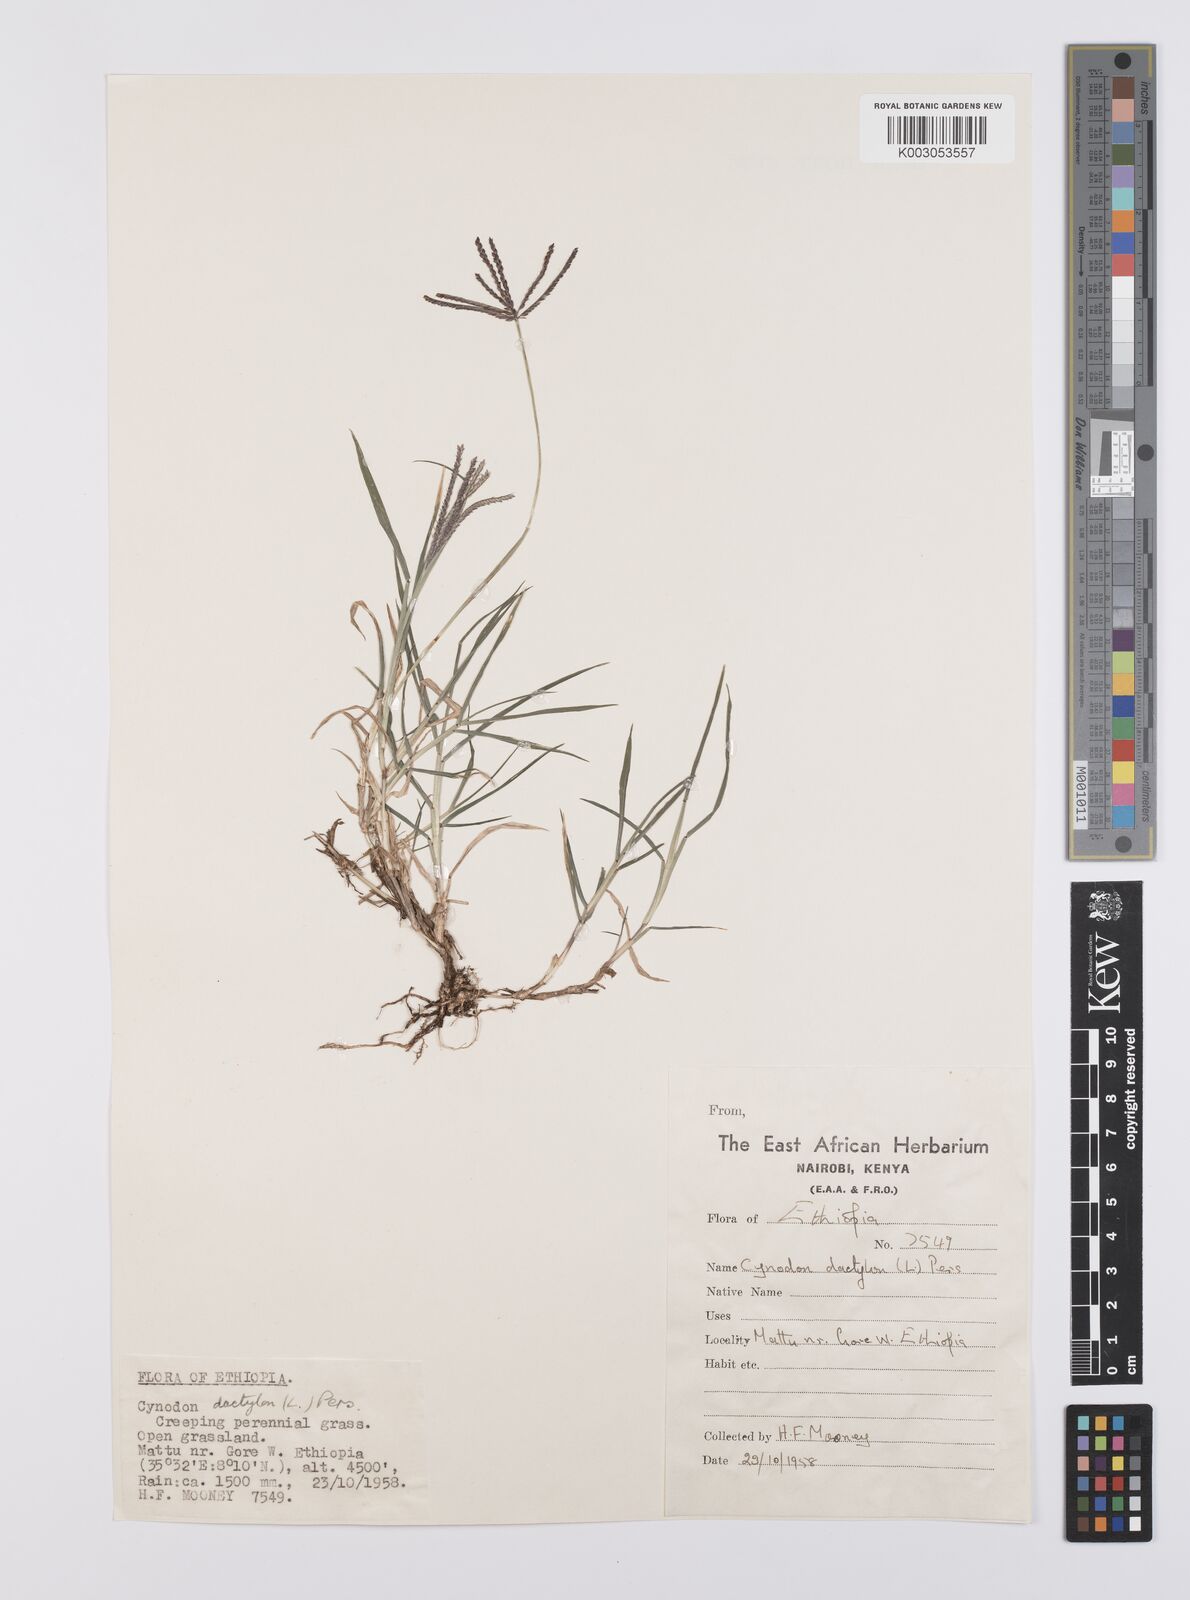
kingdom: Plantae
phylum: Tracheophyta
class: Liliopsida
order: Poales
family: Poaceae
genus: Cynodon
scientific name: Cynodon dactylon
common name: Bermuda grass
